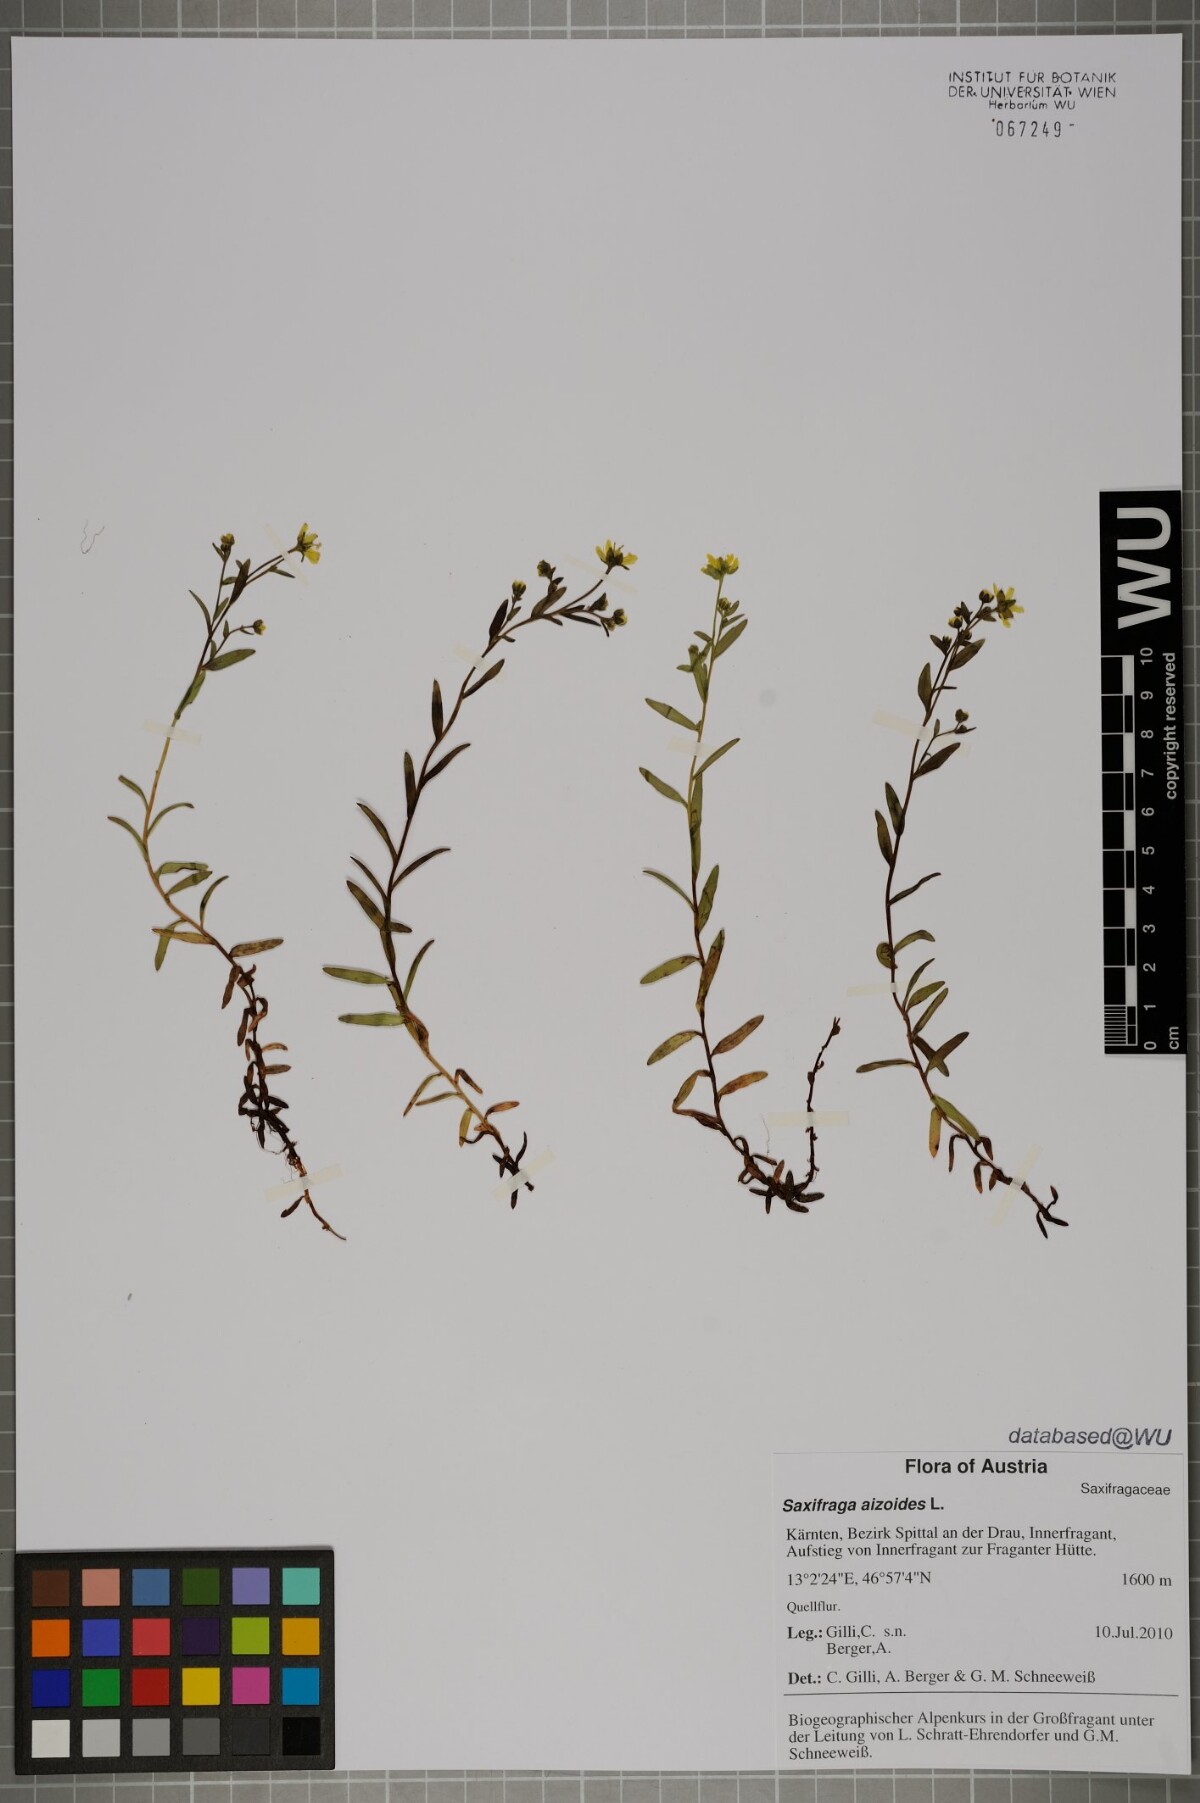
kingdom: Plantae
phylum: Tracheophyta
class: Magnoliopsida
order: Saxifragales
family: Saxifragaceae
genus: Saxifraga
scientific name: Saxifraga aizoides
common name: Yellow mountain saxifrage
